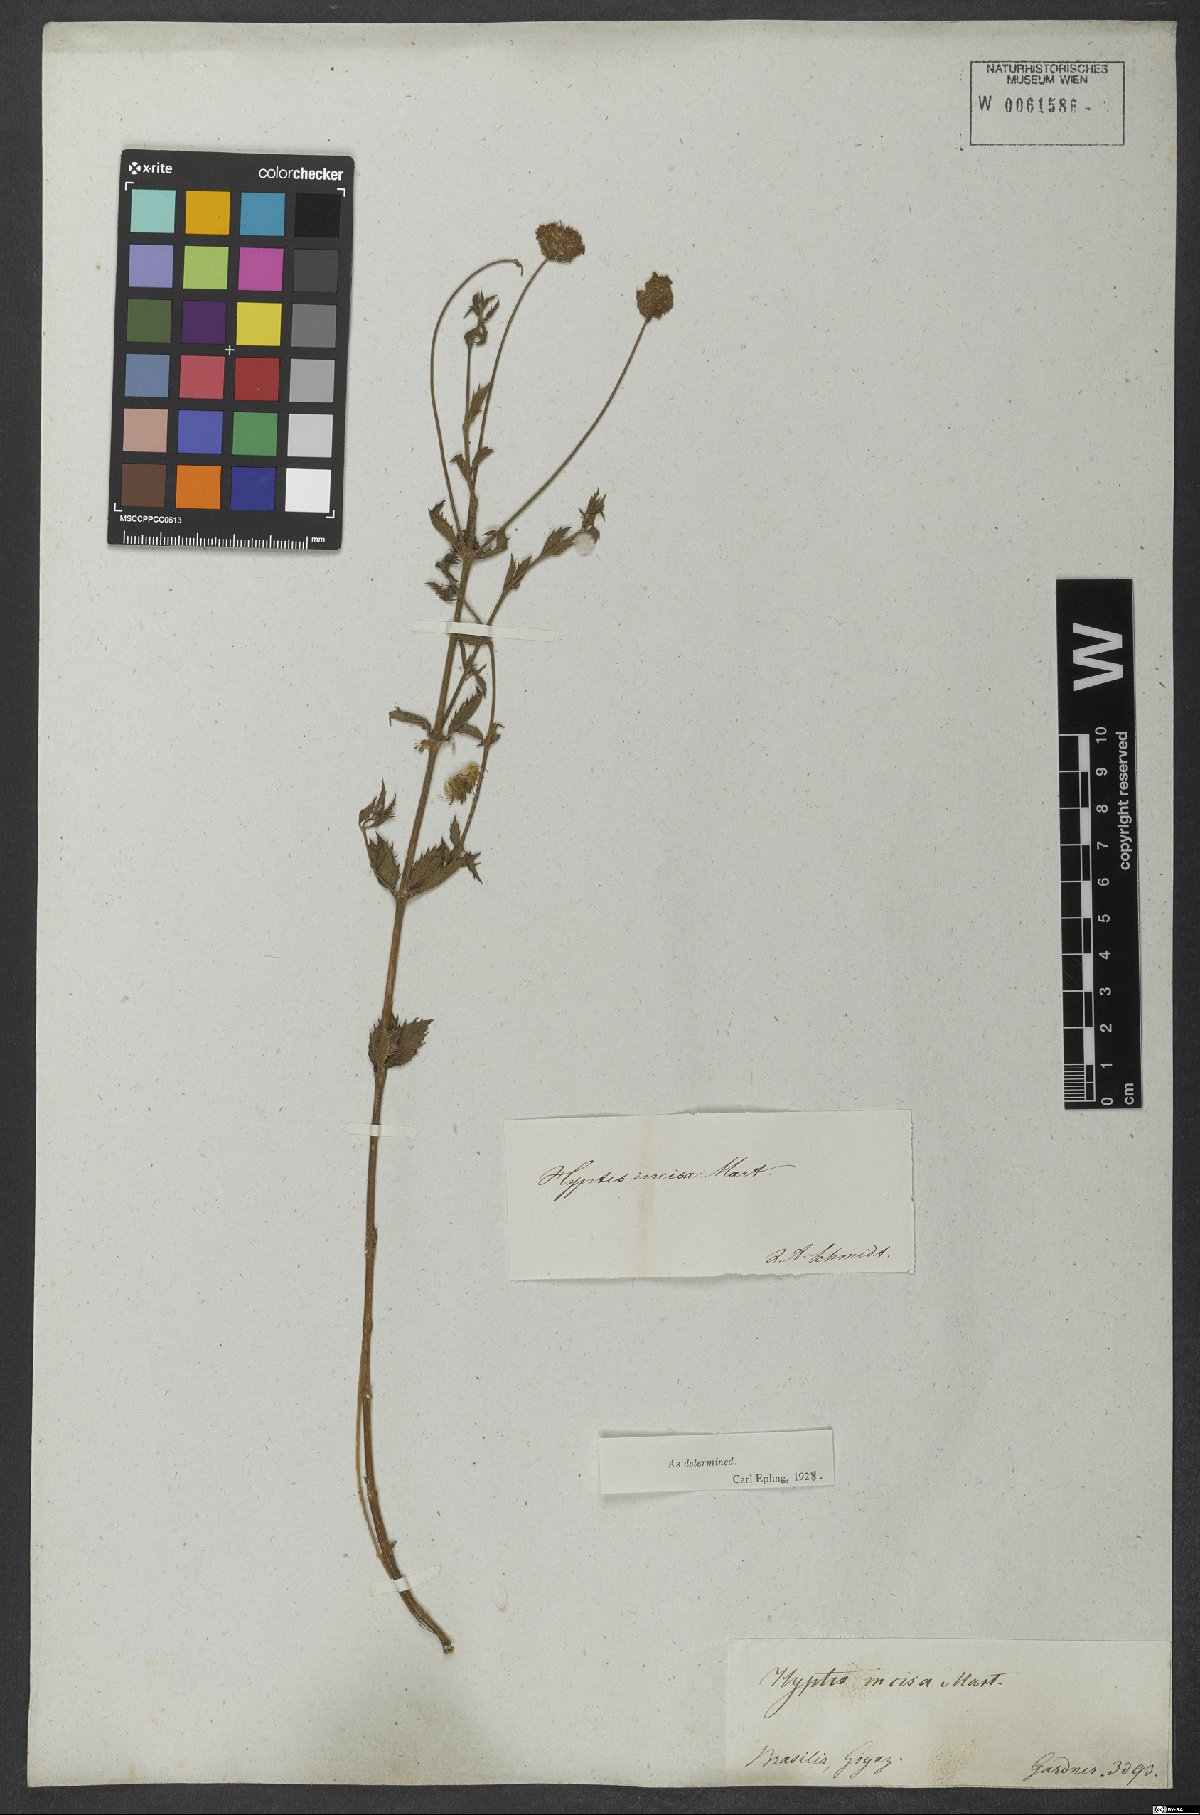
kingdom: Plantae
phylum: Tracheophyta
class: Magnoliopsida
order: Lamiales
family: Lamiaceae
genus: Cyanocephalus
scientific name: Cyanocephalus rugosus
